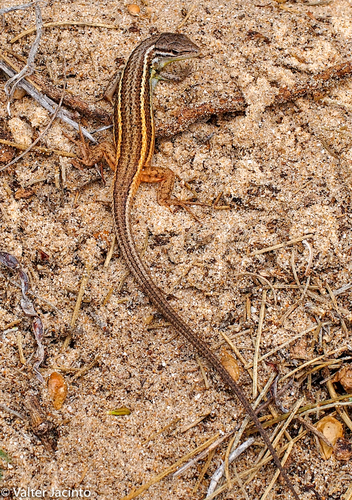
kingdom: Animalia
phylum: Chordata
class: Squamata
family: Lacertidae
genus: Psammodromus
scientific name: Psammodromus algirus
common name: Algerian psammodromus
